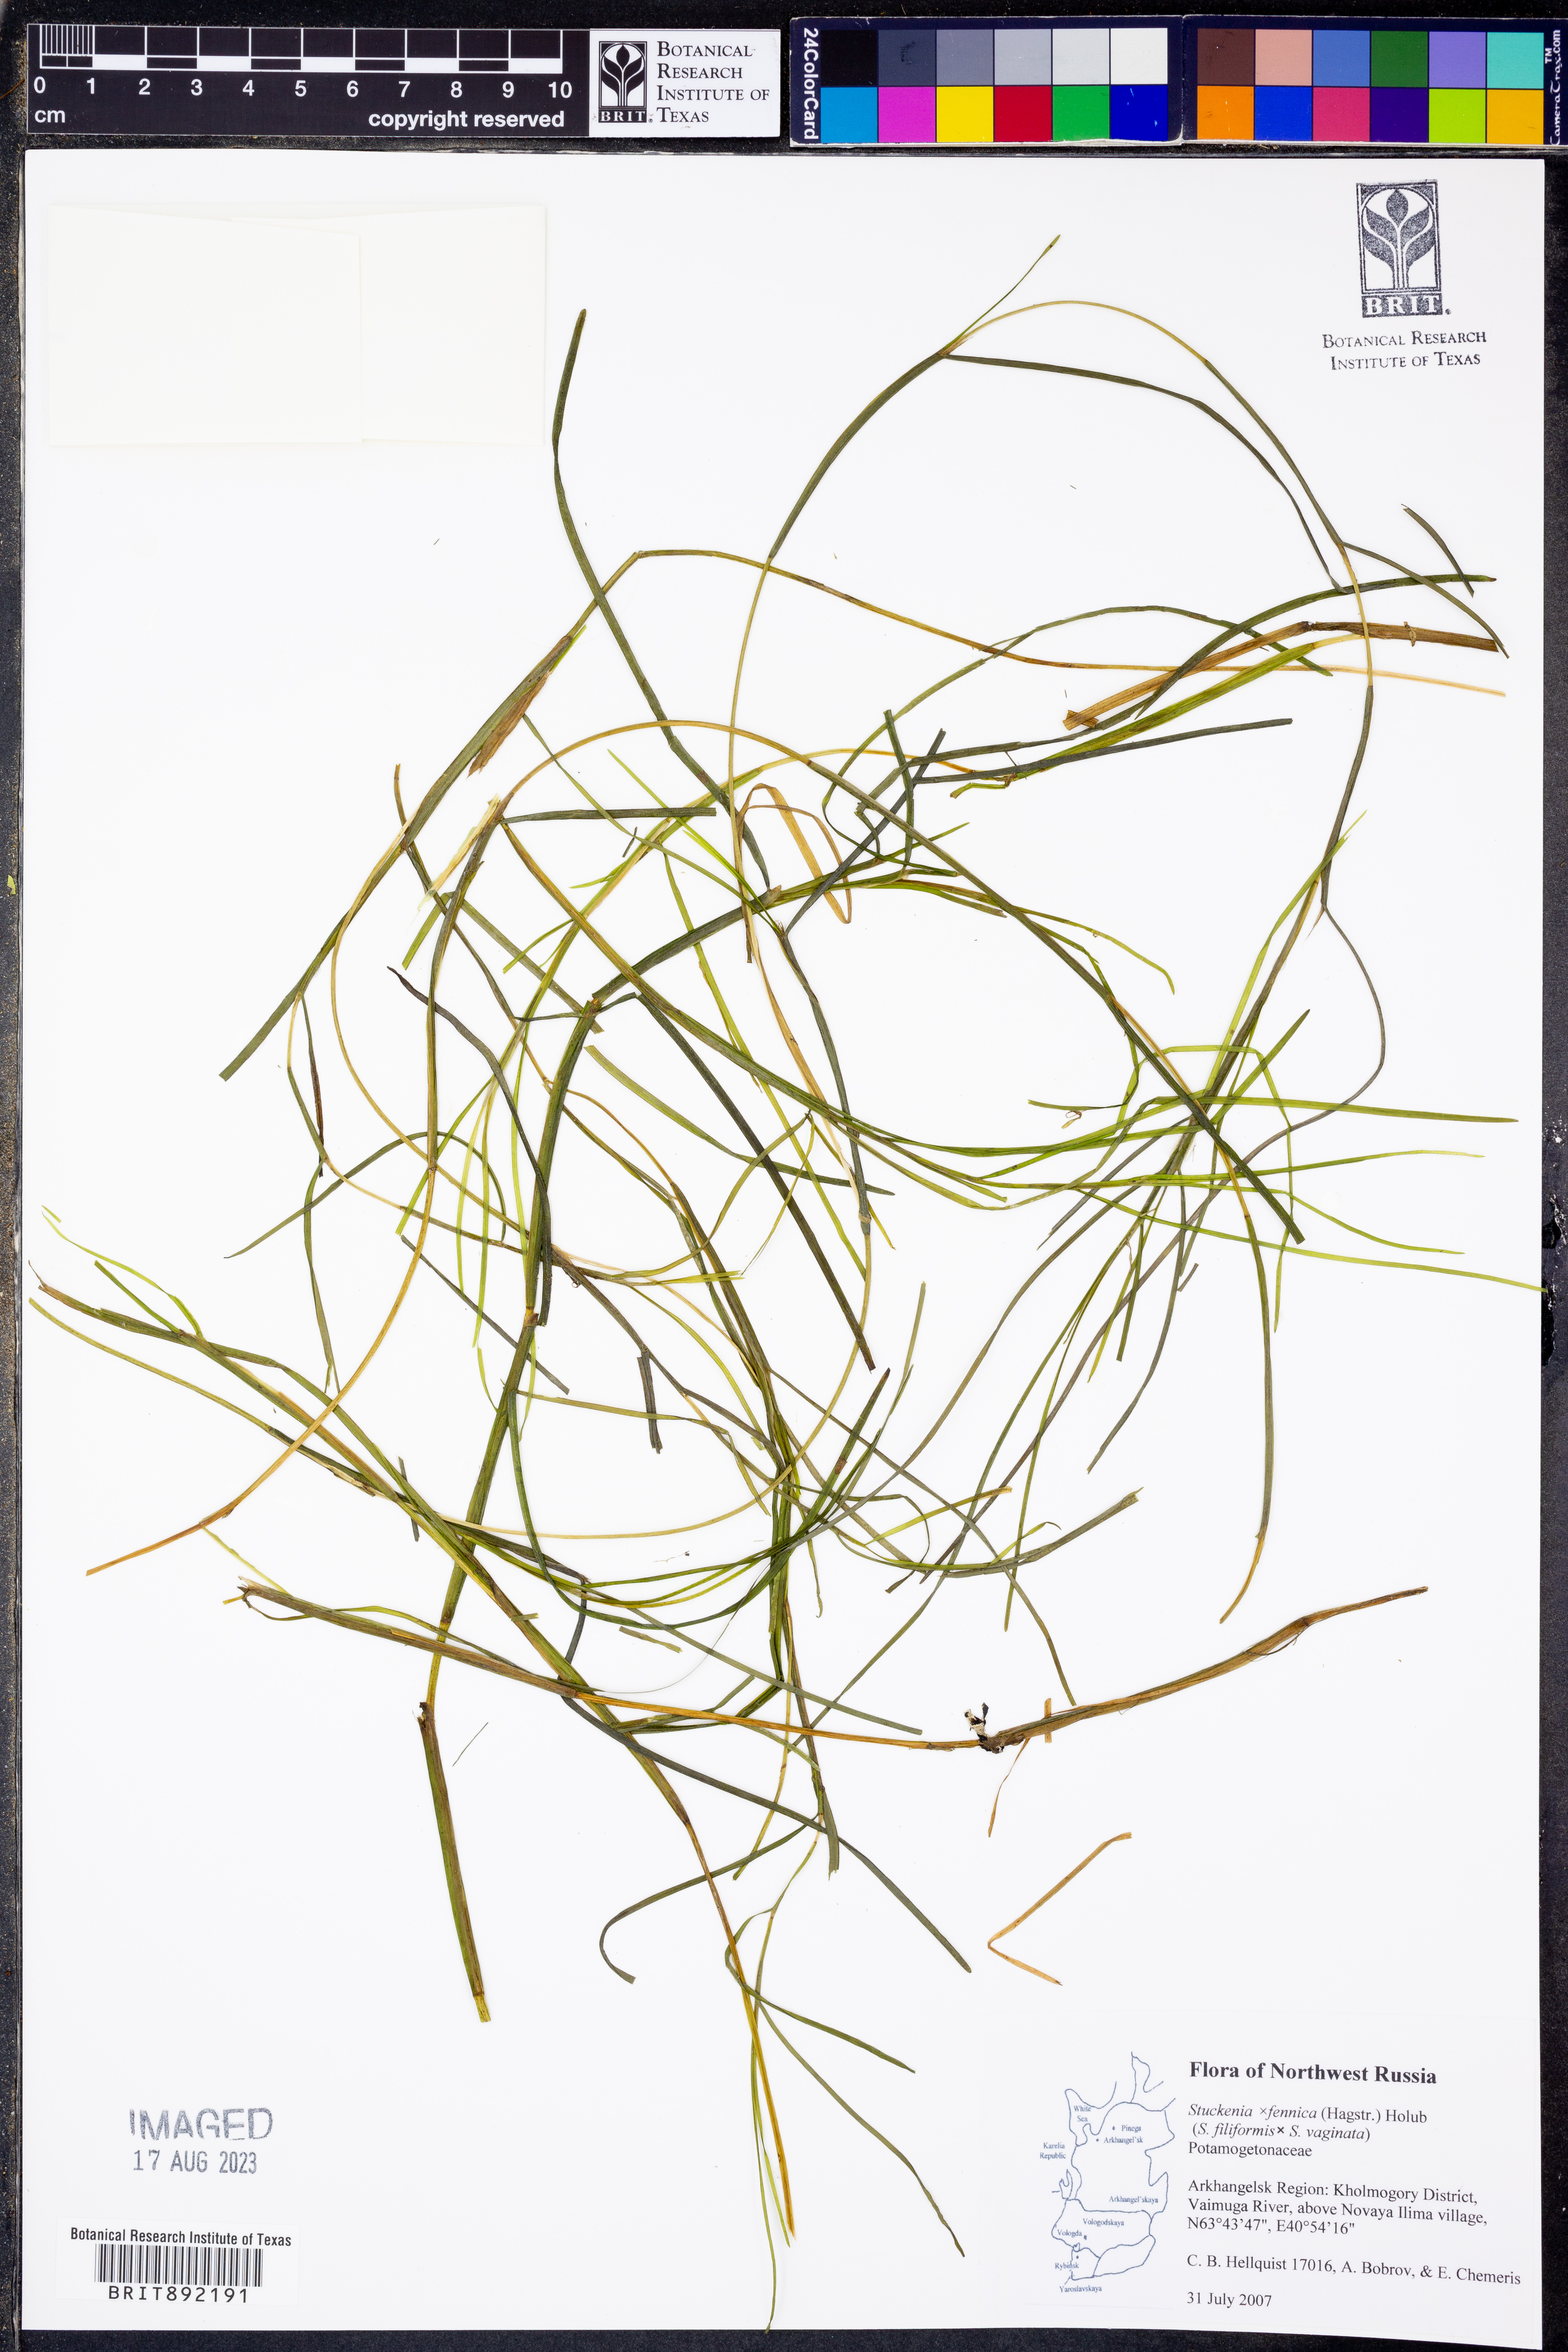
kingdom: Plantae
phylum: Tracheophyta
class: Liliopsida
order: Alismatales
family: Potamogetonaceae
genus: Stuckenia
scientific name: Stuckenia fennica
